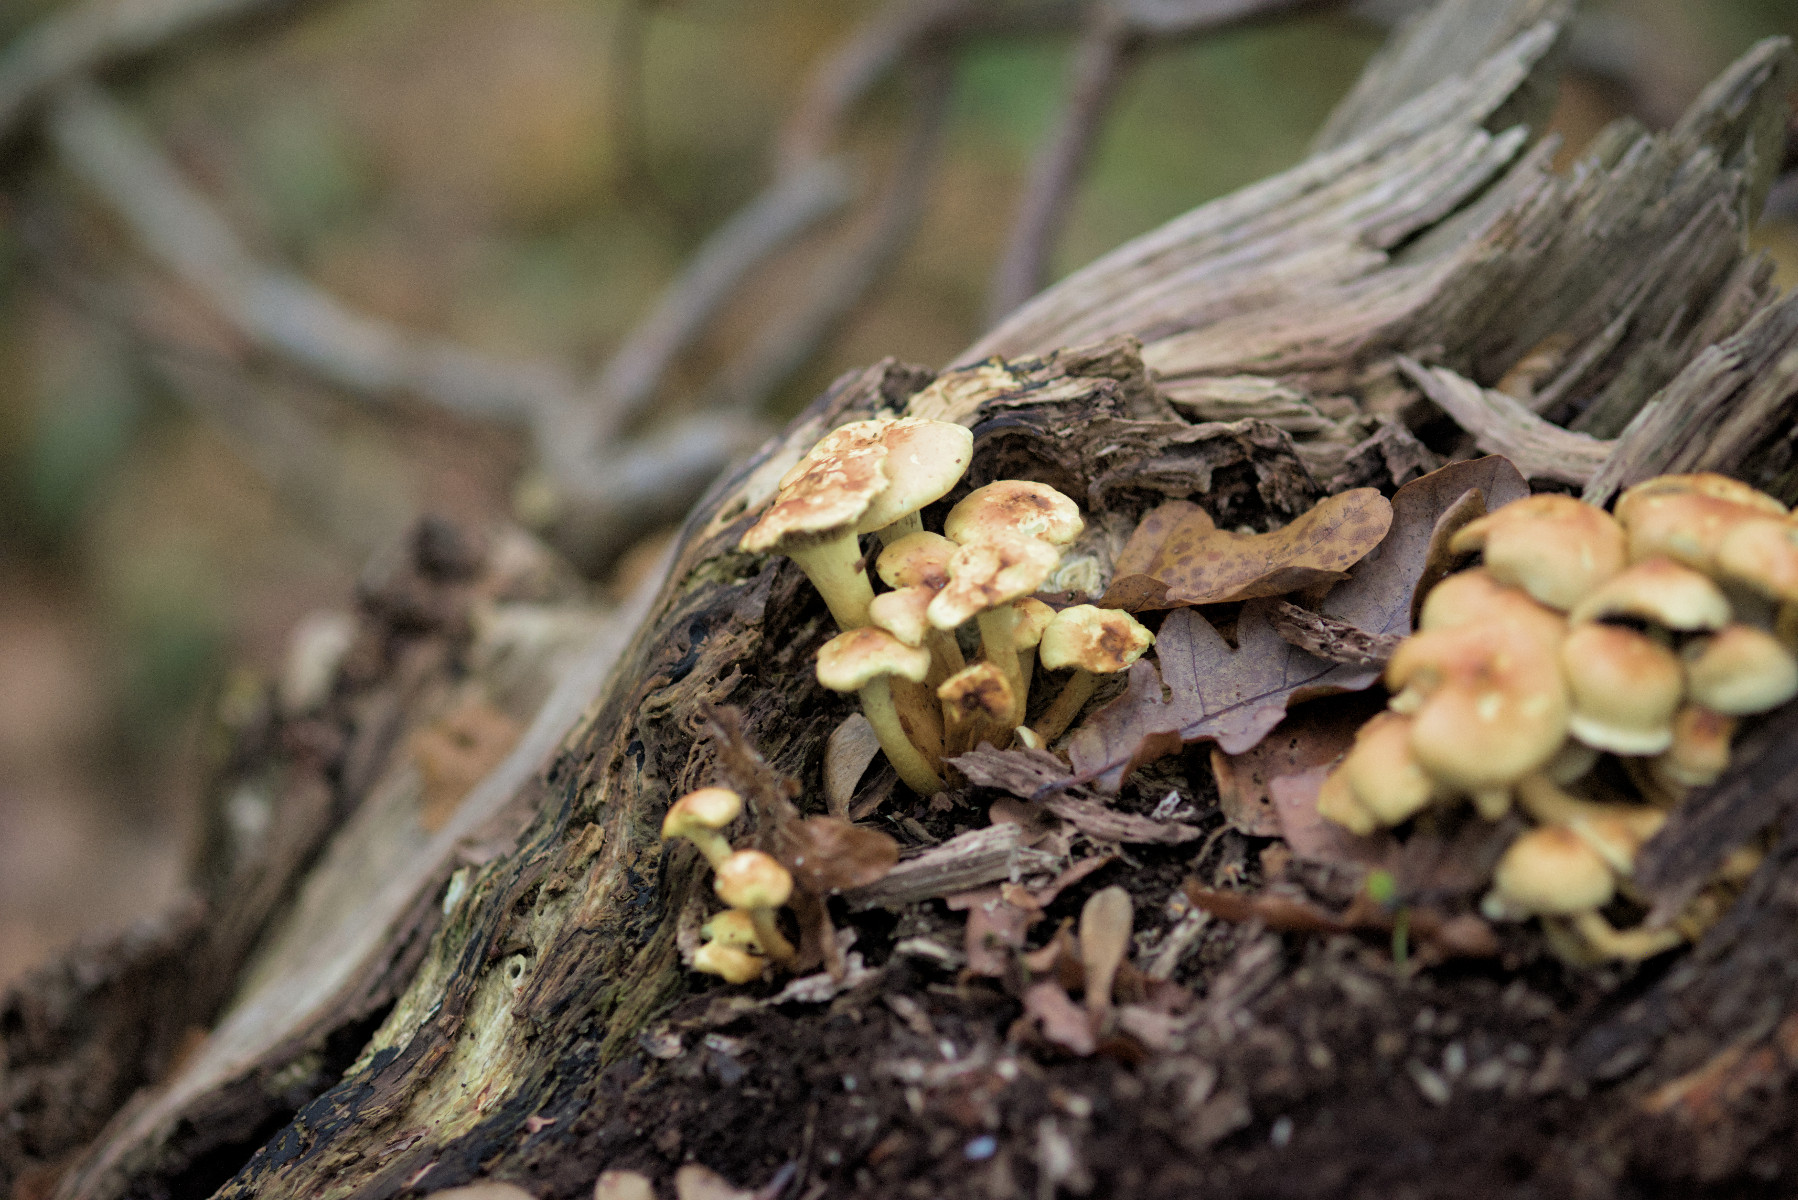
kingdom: Fungi
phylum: Basidiomycota
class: Agaricomycetes
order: Agaricales
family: Strophariaceae
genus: Hypholoma
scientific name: Hypholoma fasciculare
